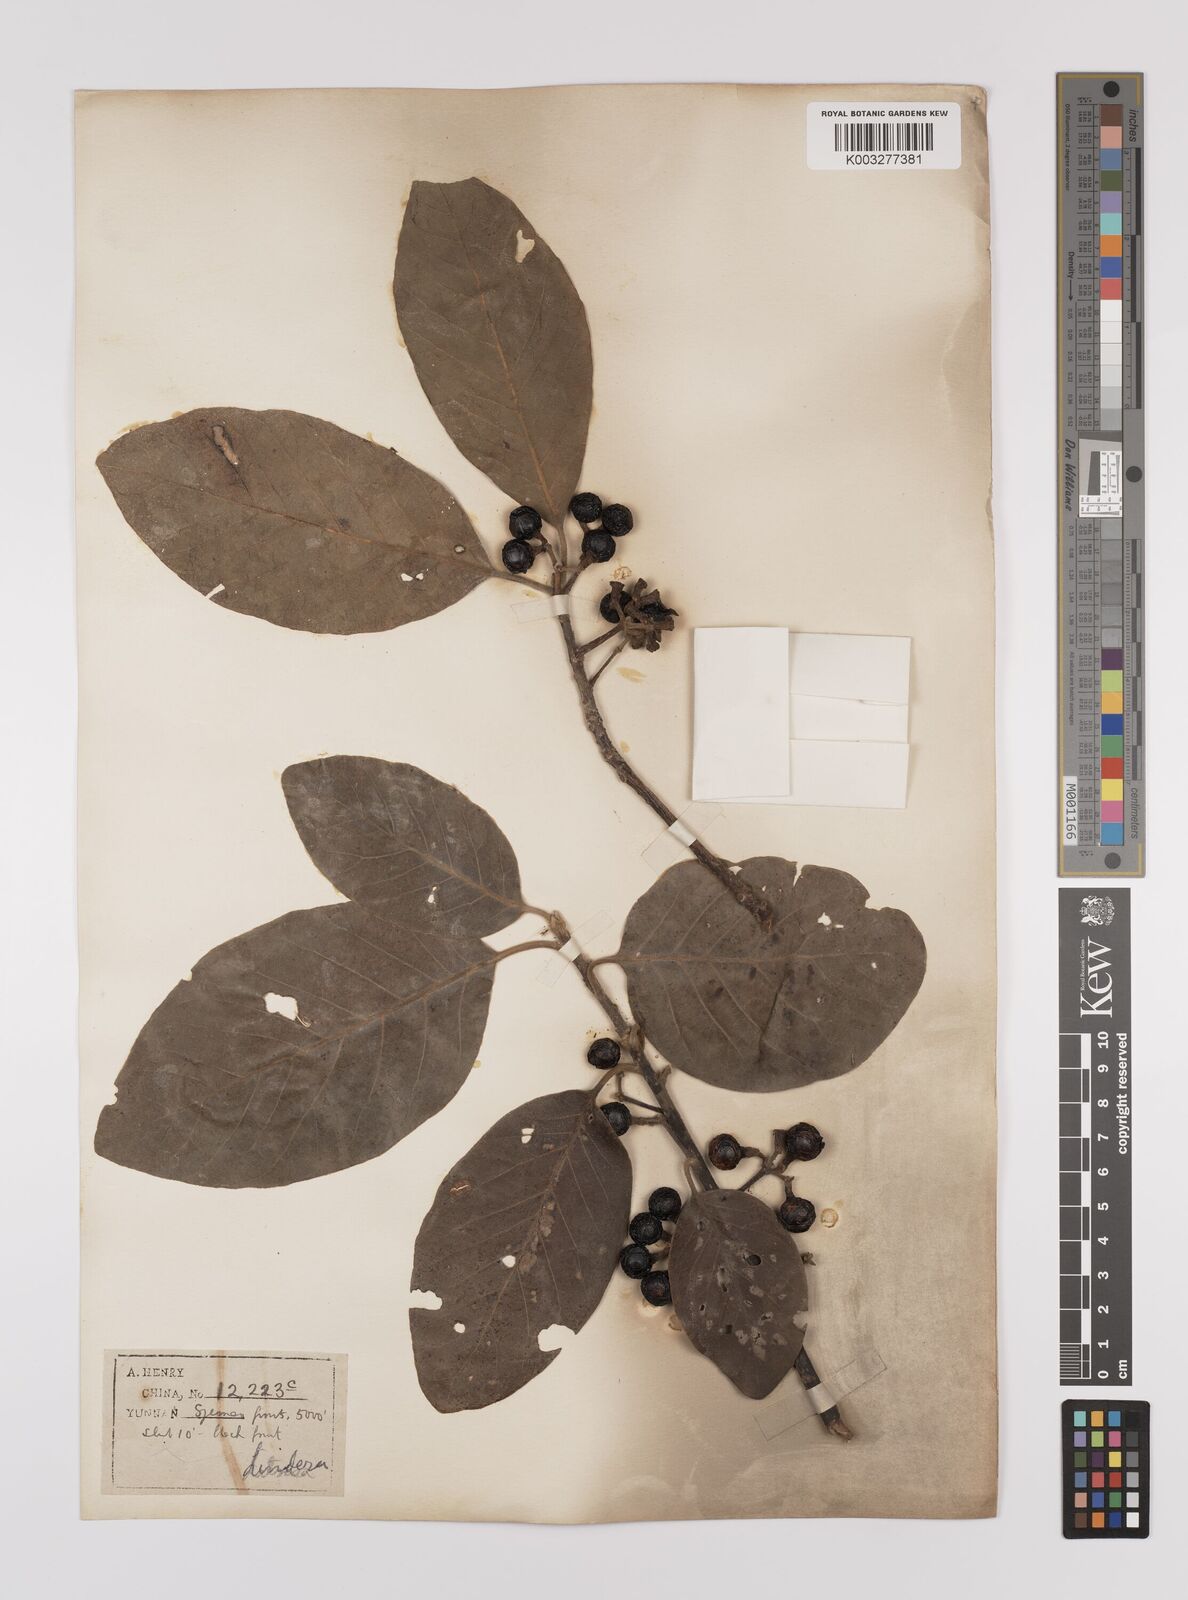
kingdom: Plantae
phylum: Tracheophyta
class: Magnoliopsida
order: Laurales
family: Lauraceae
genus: Litsea
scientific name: Litsea glutinosa
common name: Indian-laurel
